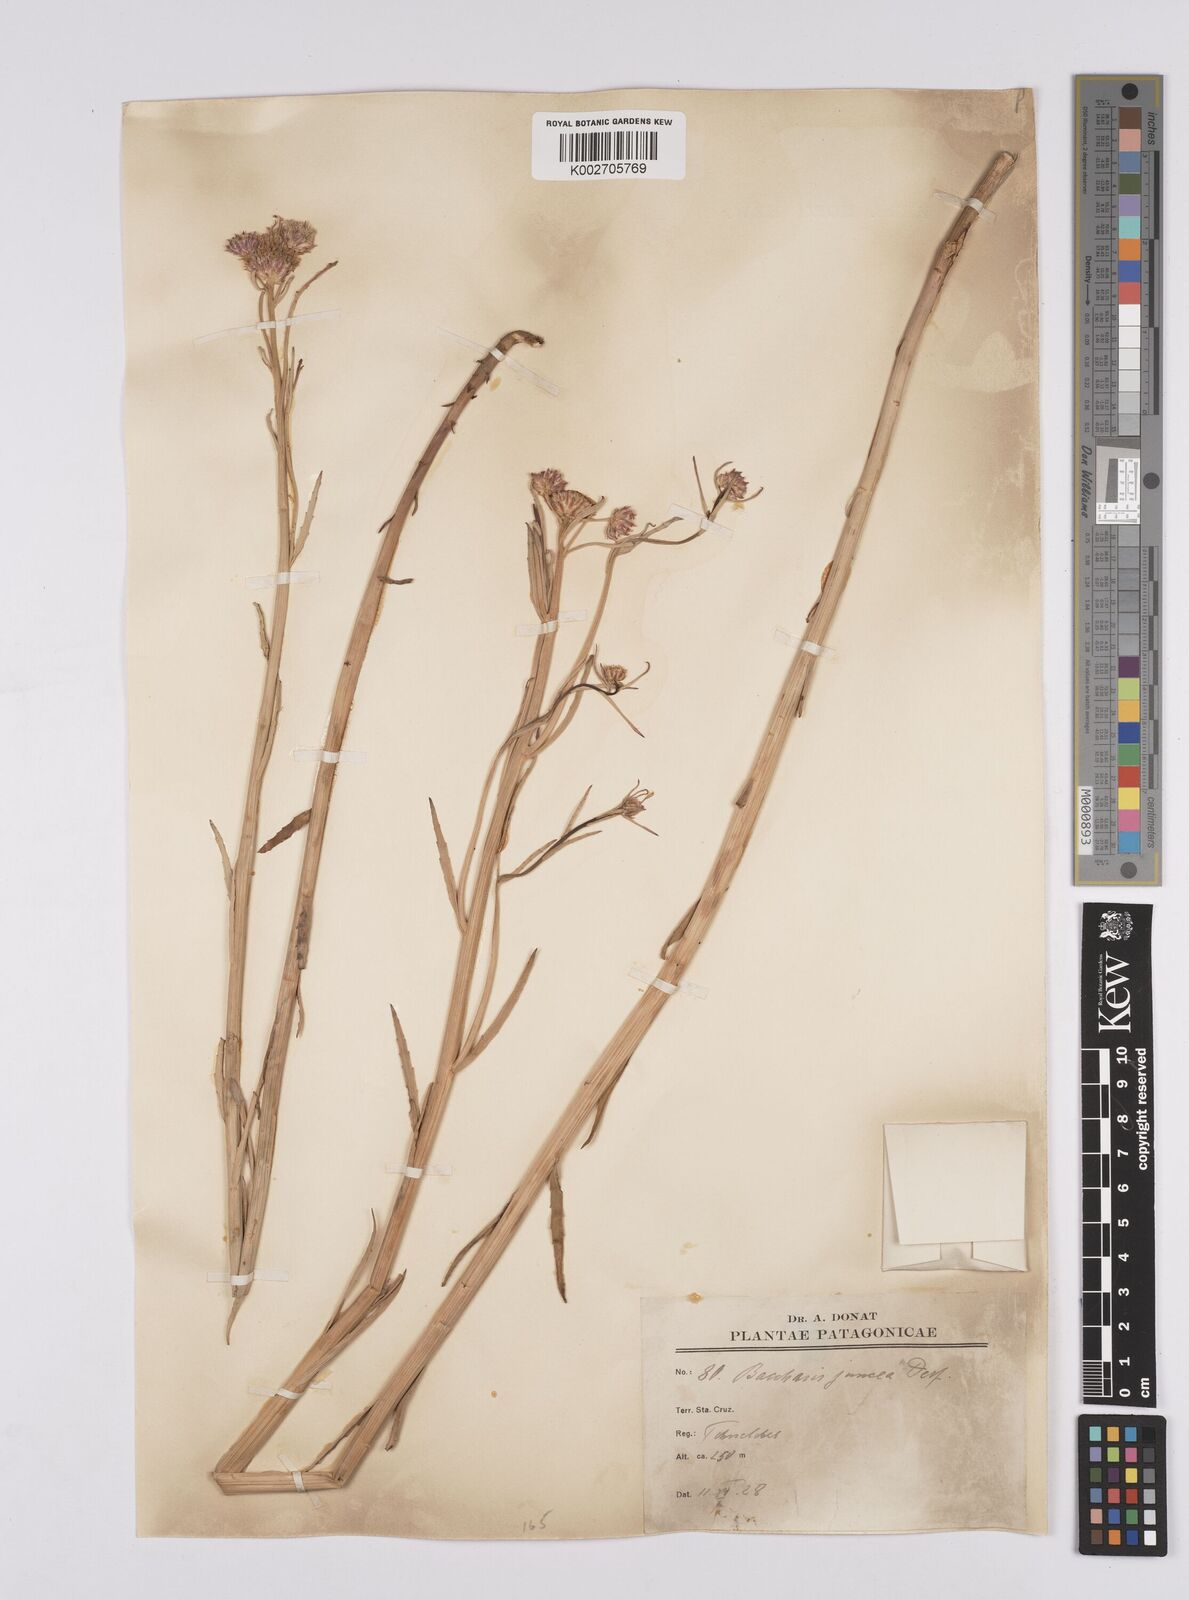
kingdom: Plantae
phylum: Tracheophyta
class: Magnoliopsida
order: Asterales
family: Asteraceae
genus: Baccharis
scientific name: Baccharis juncea
